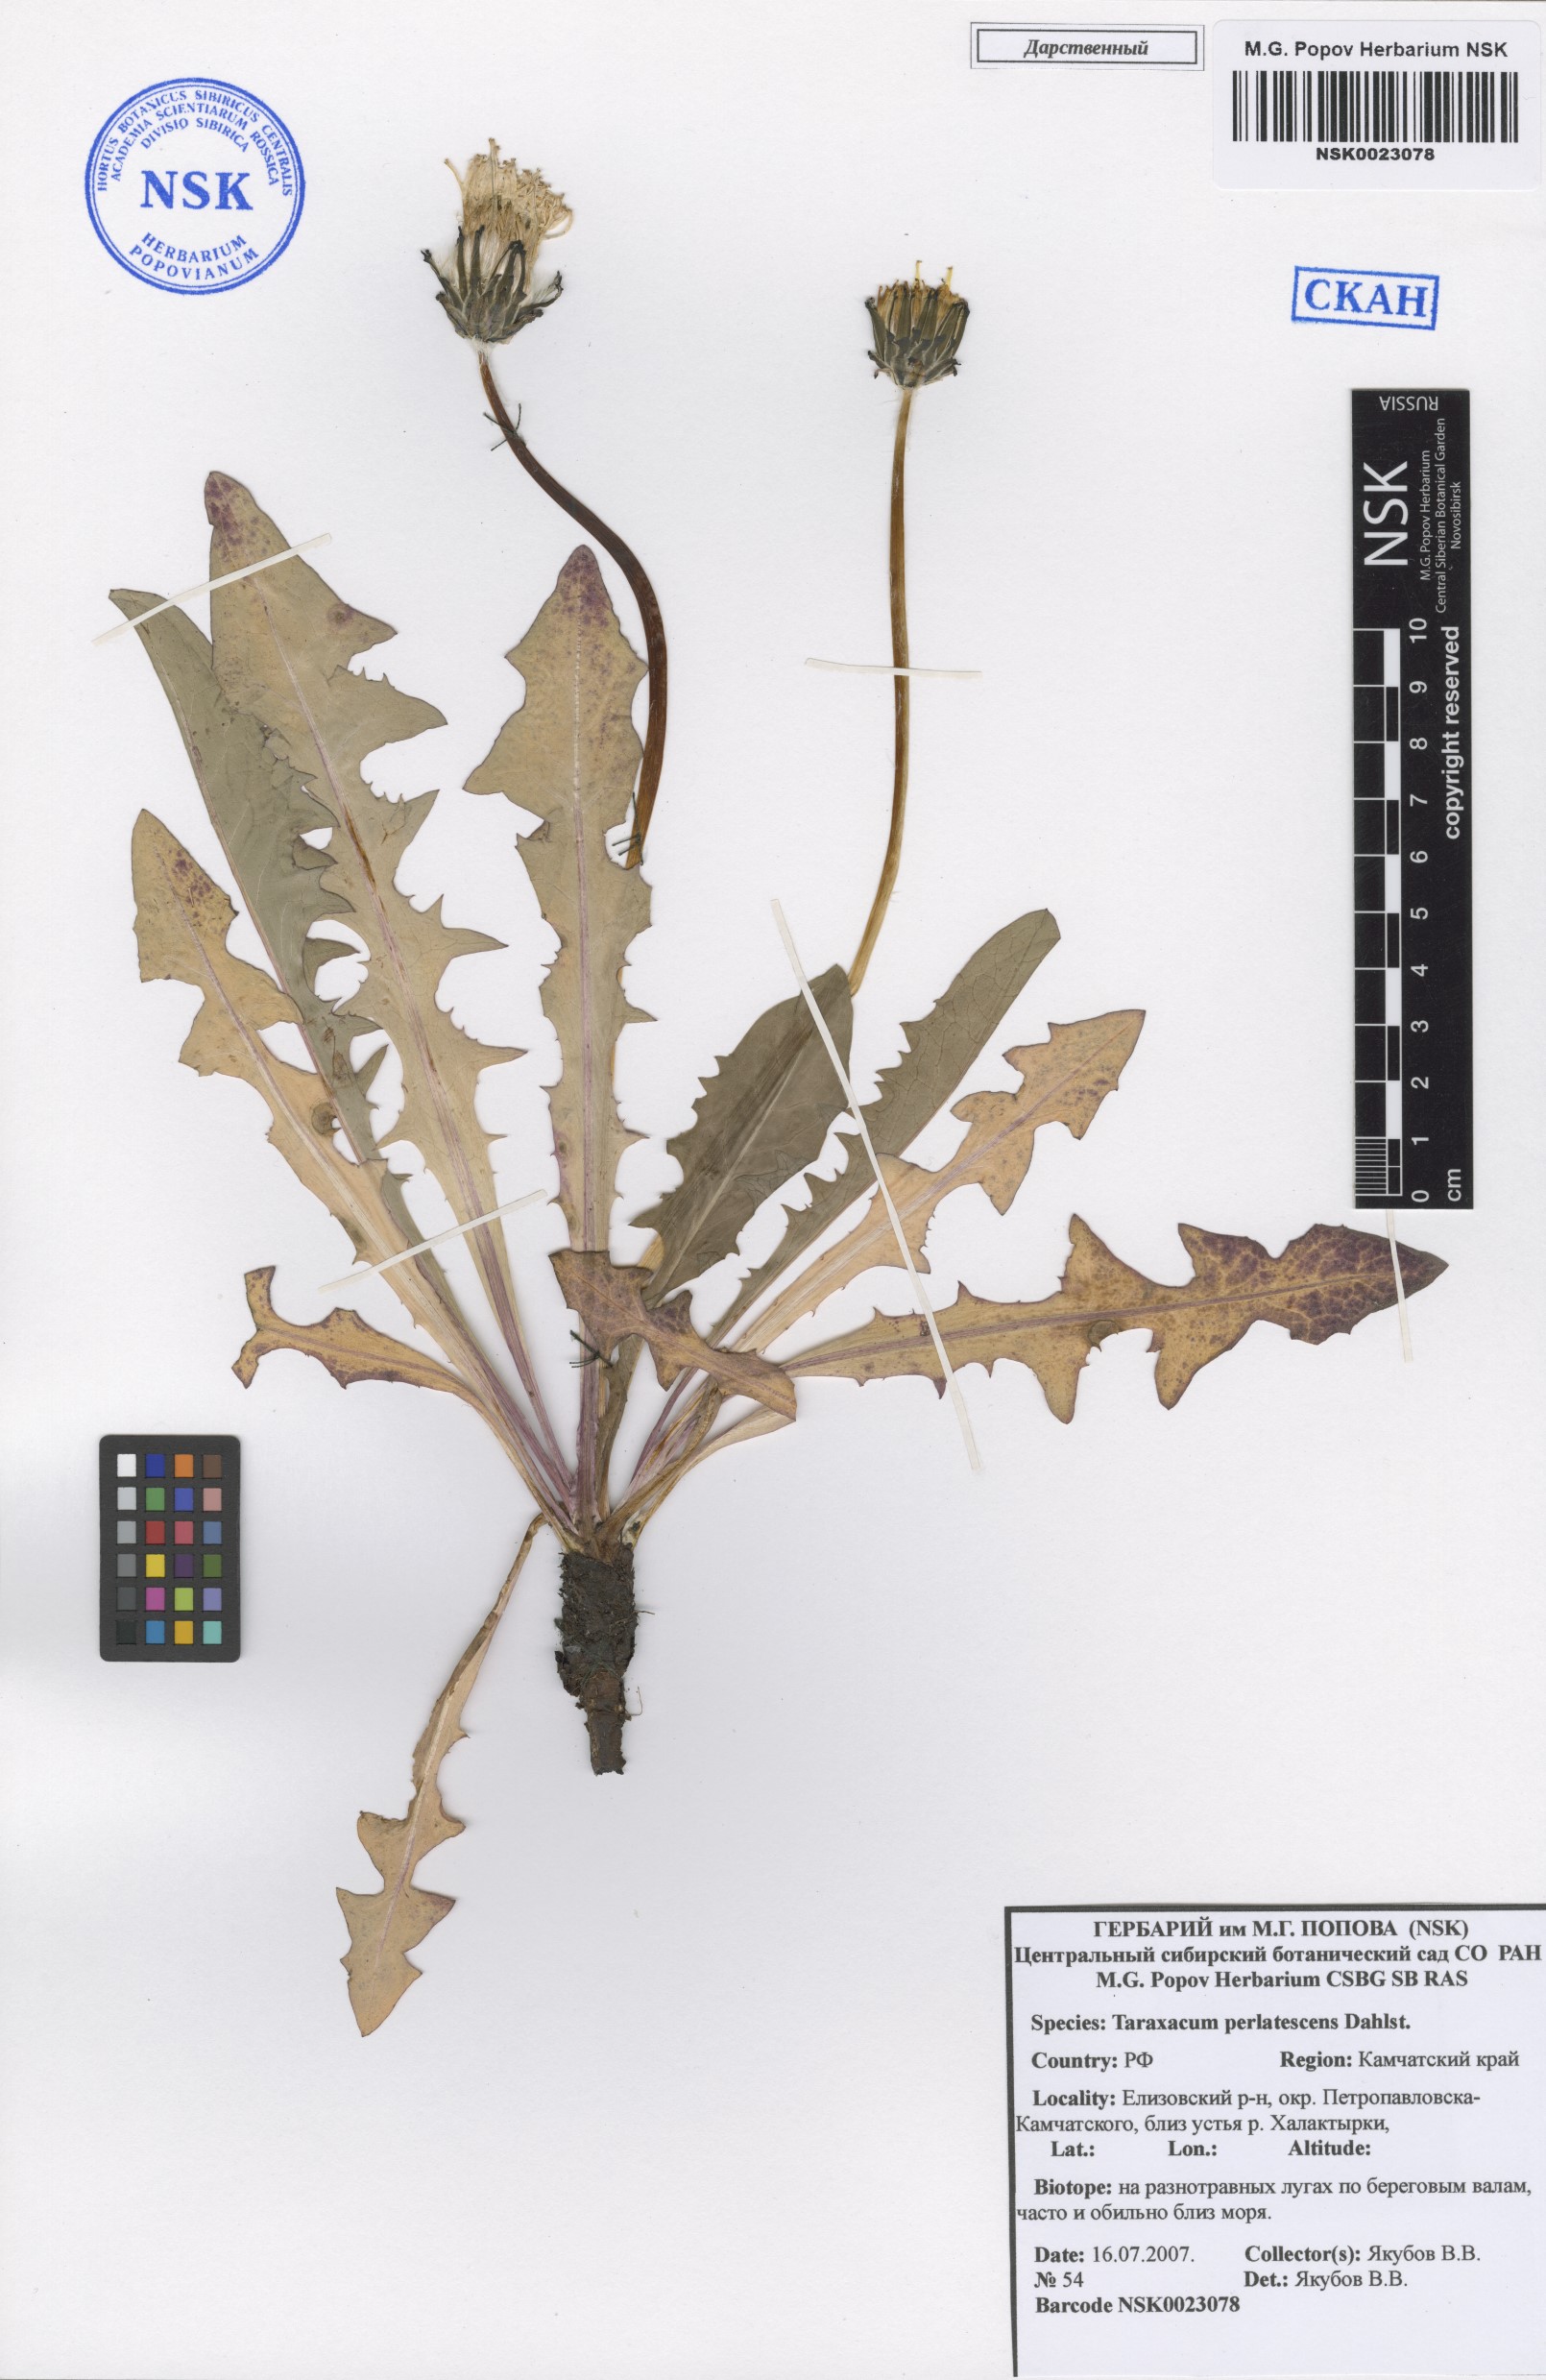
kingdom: Plantae
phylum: Tracheophyta
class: Magnoliopsida
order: Asterales
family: Asteraceae
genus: Taraxacum
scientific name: Taraxacum perlatescens
